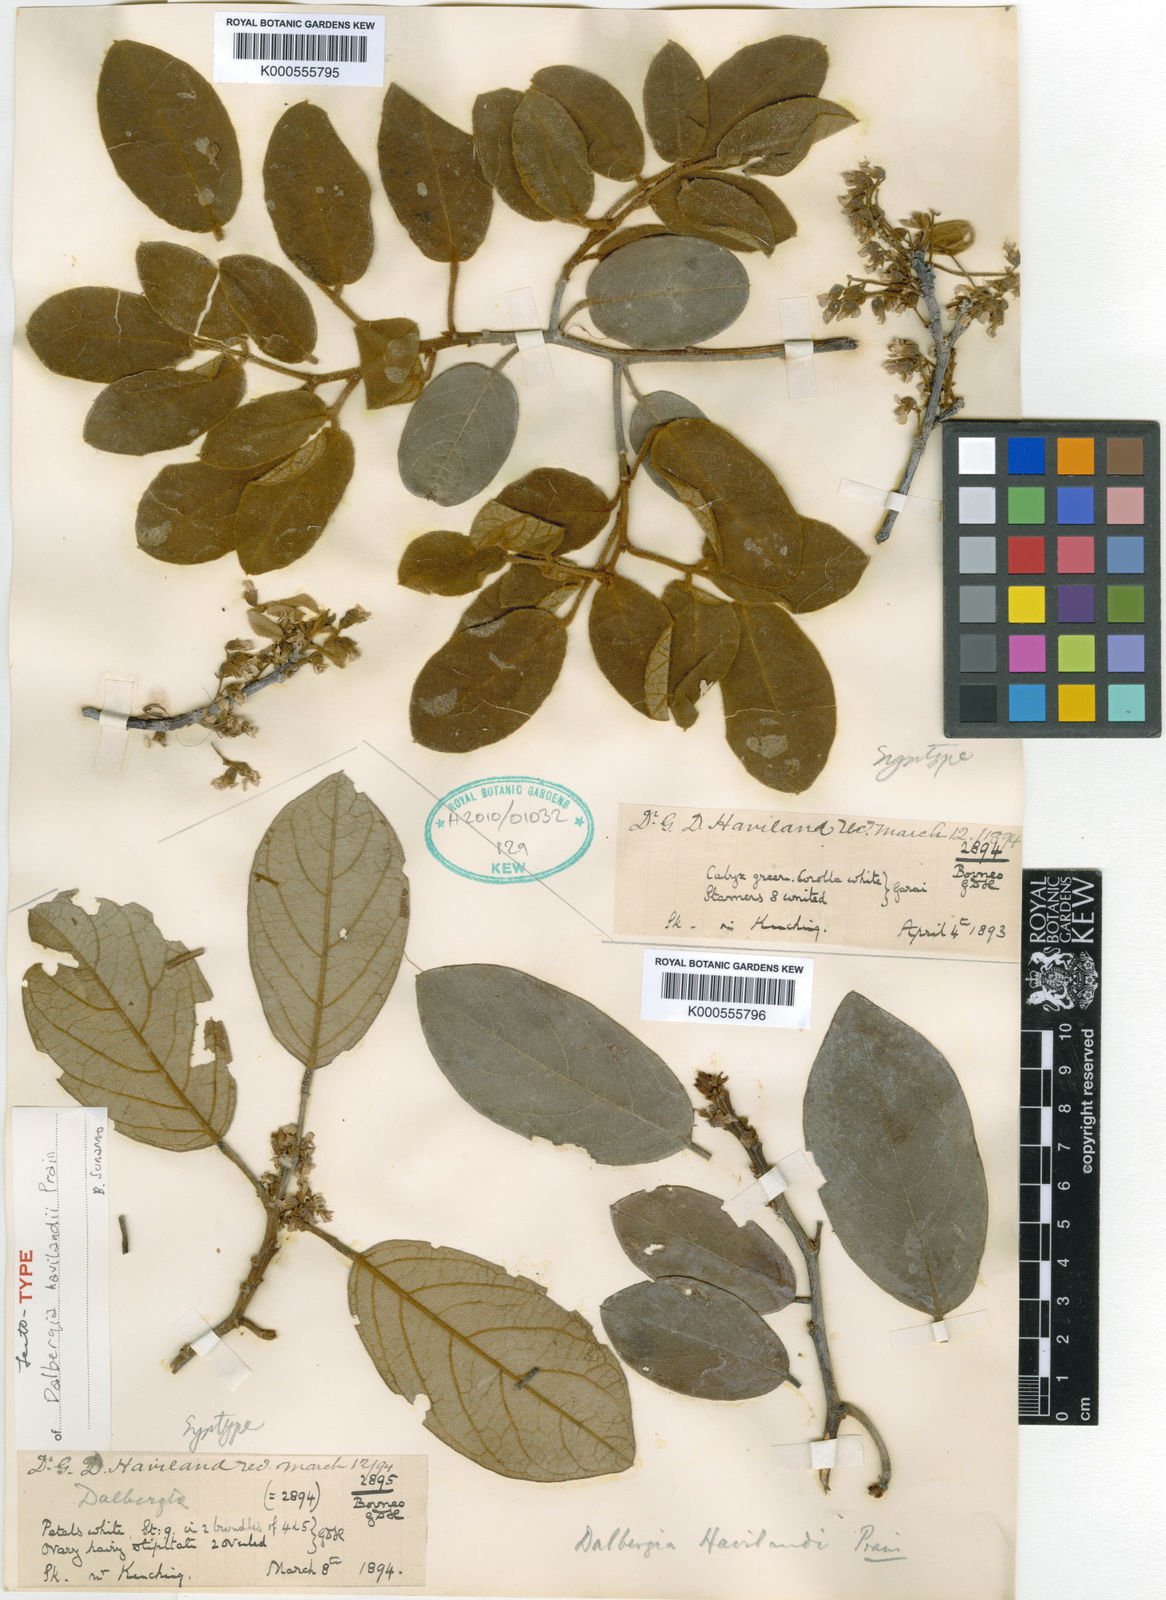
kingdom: Plantae
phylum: Tracheophyta
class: Magnoliopsida
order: Fabales
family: Fabaceae
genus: Dalbergia
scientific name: Dalbergia havilandii
